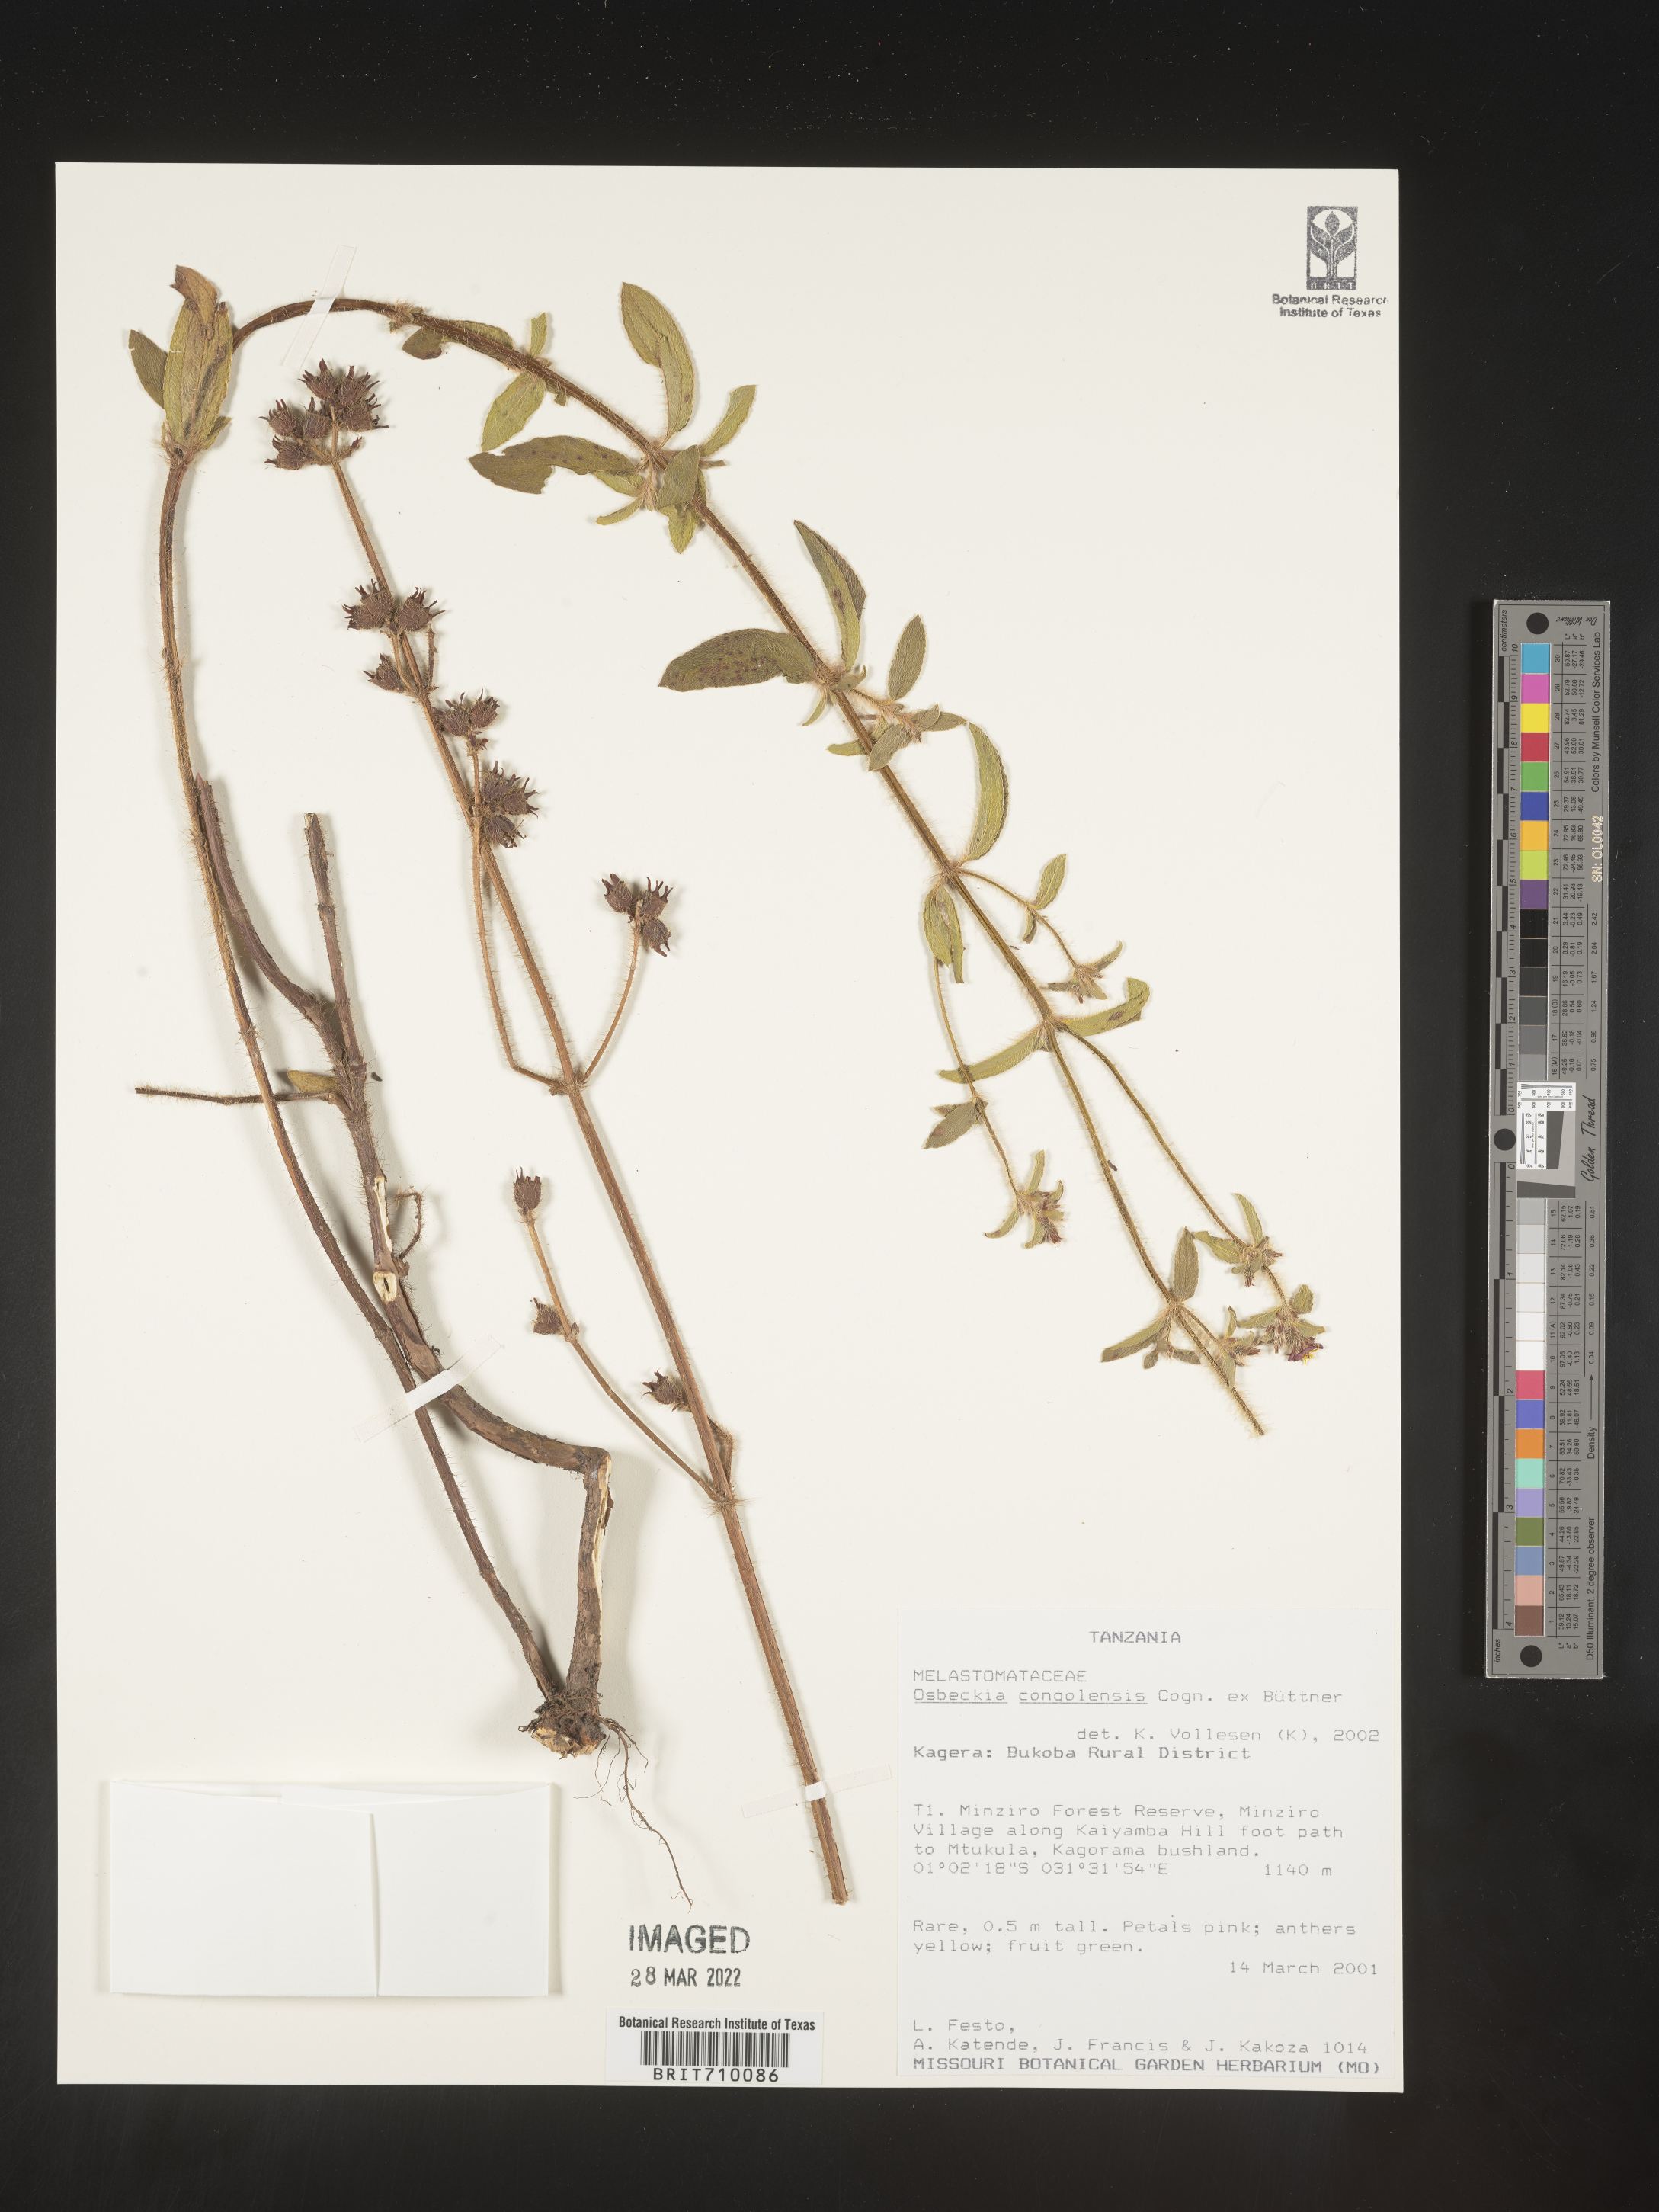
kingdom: Plantae
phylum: Tracheophyta
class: Magnoliopsida
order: Myrtales
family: Melastomataceae
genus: Osbeckia
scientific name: Osbeckia
